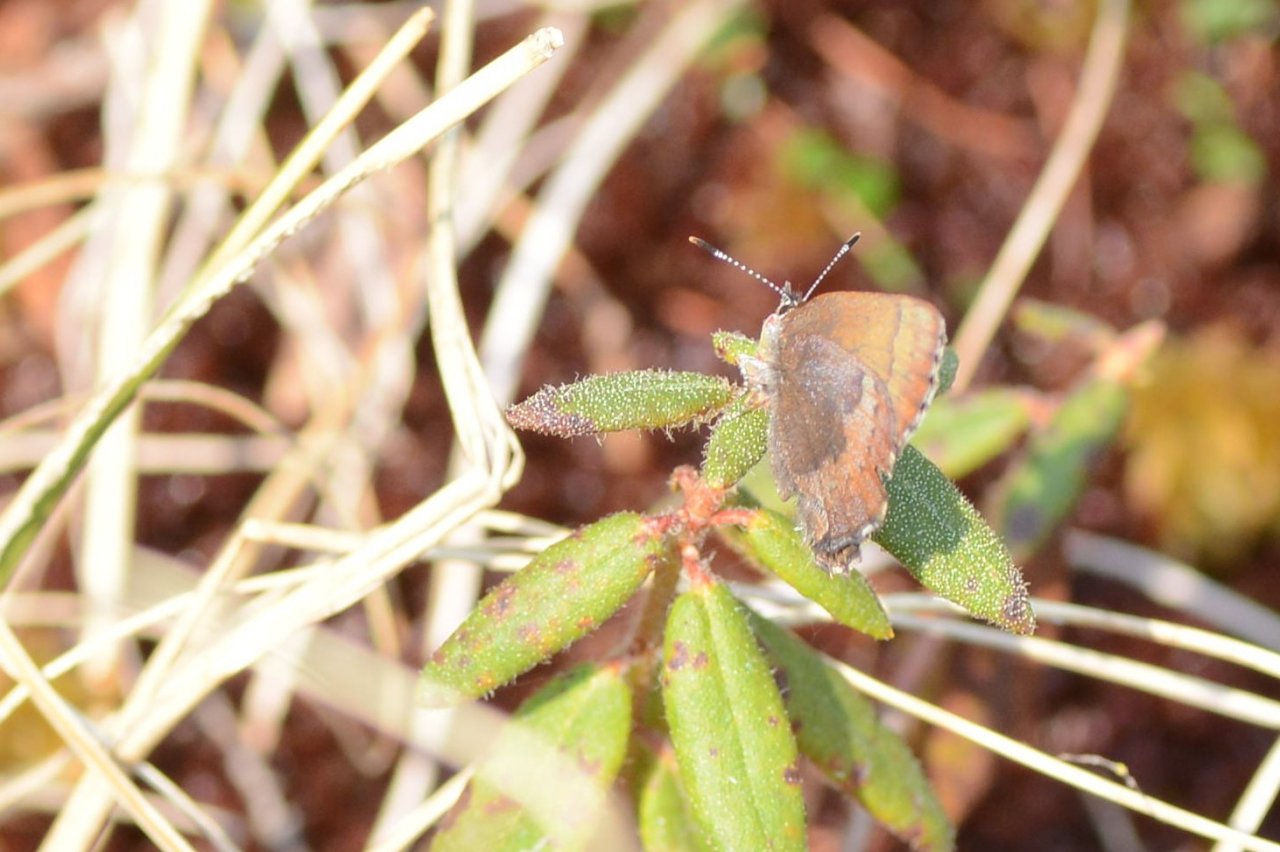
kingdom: Animalia
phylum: Arthropoda
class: Insecta
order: Lepidoptera
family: Lycaenidae
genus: Incisalia
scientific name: Incisalia irioides
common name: Brown Elfin
